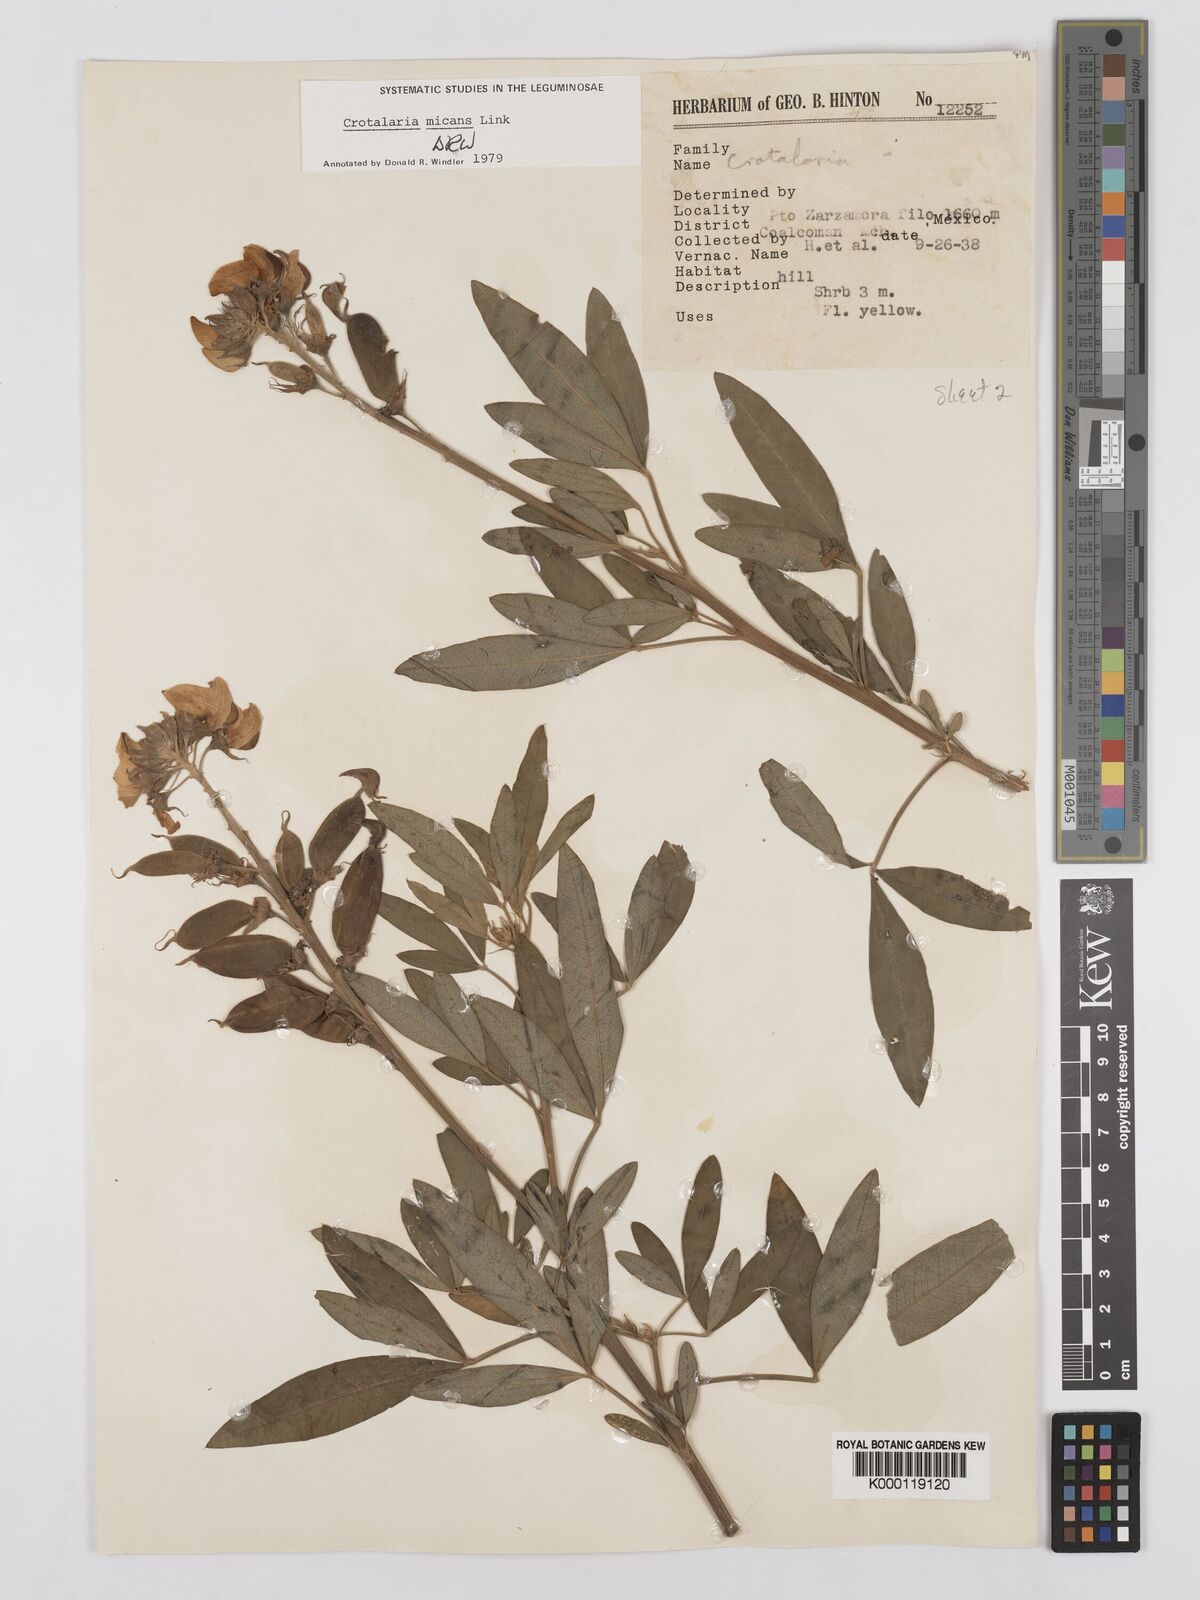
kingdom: Plantae
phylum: Tracheophyta
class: Magnoliopsida
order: Fabales
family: Fabaceae
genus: Crotalaria
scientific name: Crotalaria micans
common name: Caracas rattlebox
